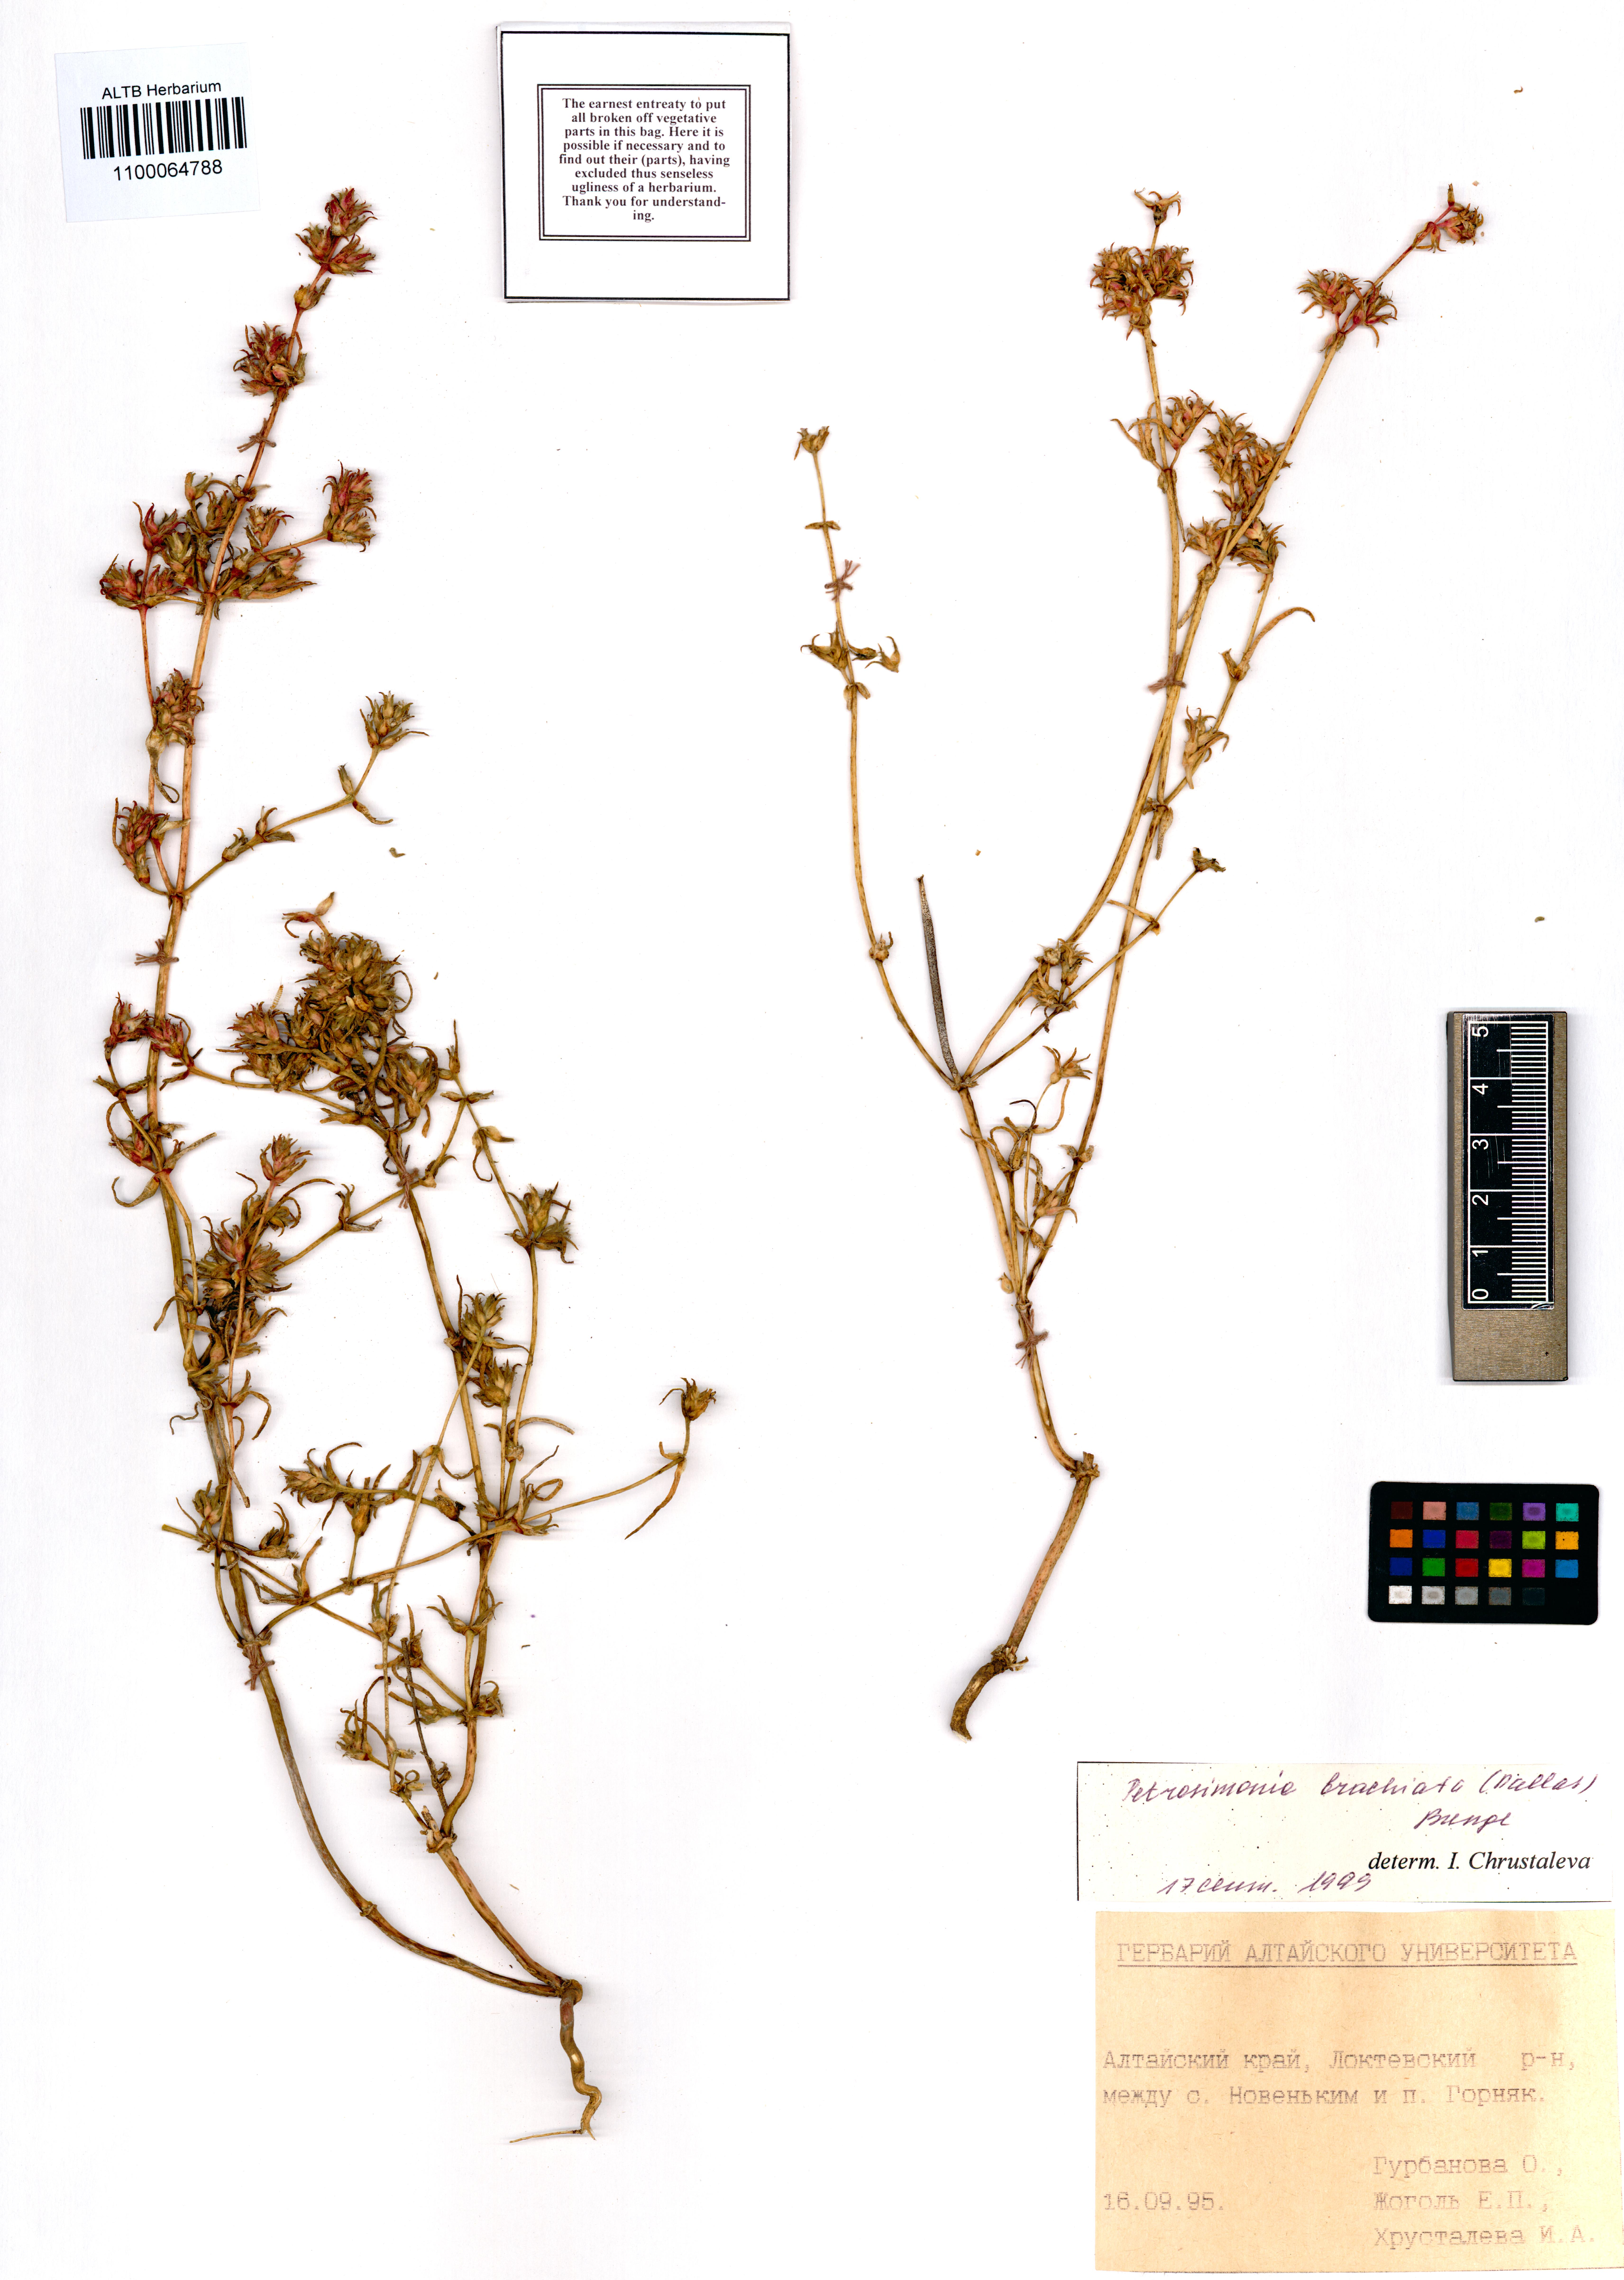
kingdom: Plantae
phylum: Tracheophyta
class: Magnoliopsida
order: Caryophyllales
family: Amaranthaceae
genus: Petrosimonia
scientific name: Petrosimonia brachiata
